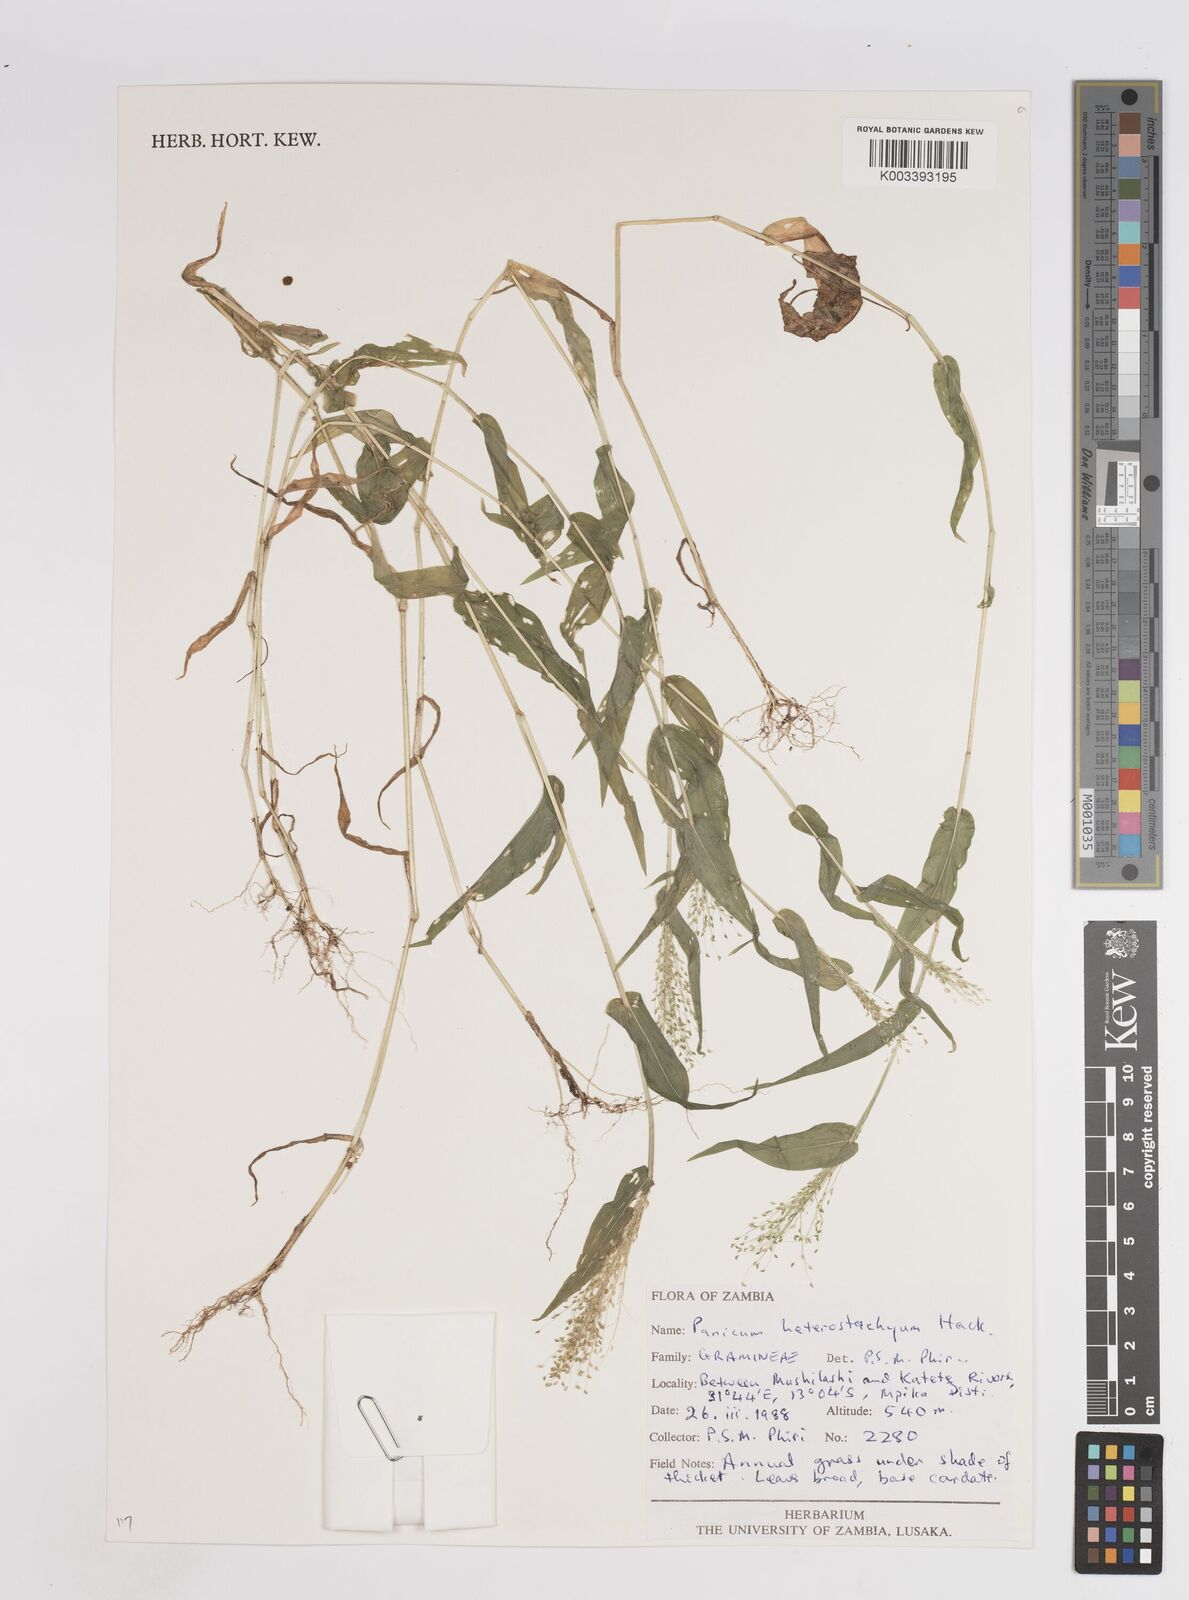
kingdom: Plantae
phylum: Tracheophyta
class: Liliopsida
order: Poales
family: Poaceae
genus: Panicum
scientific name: Panicum hirtum
